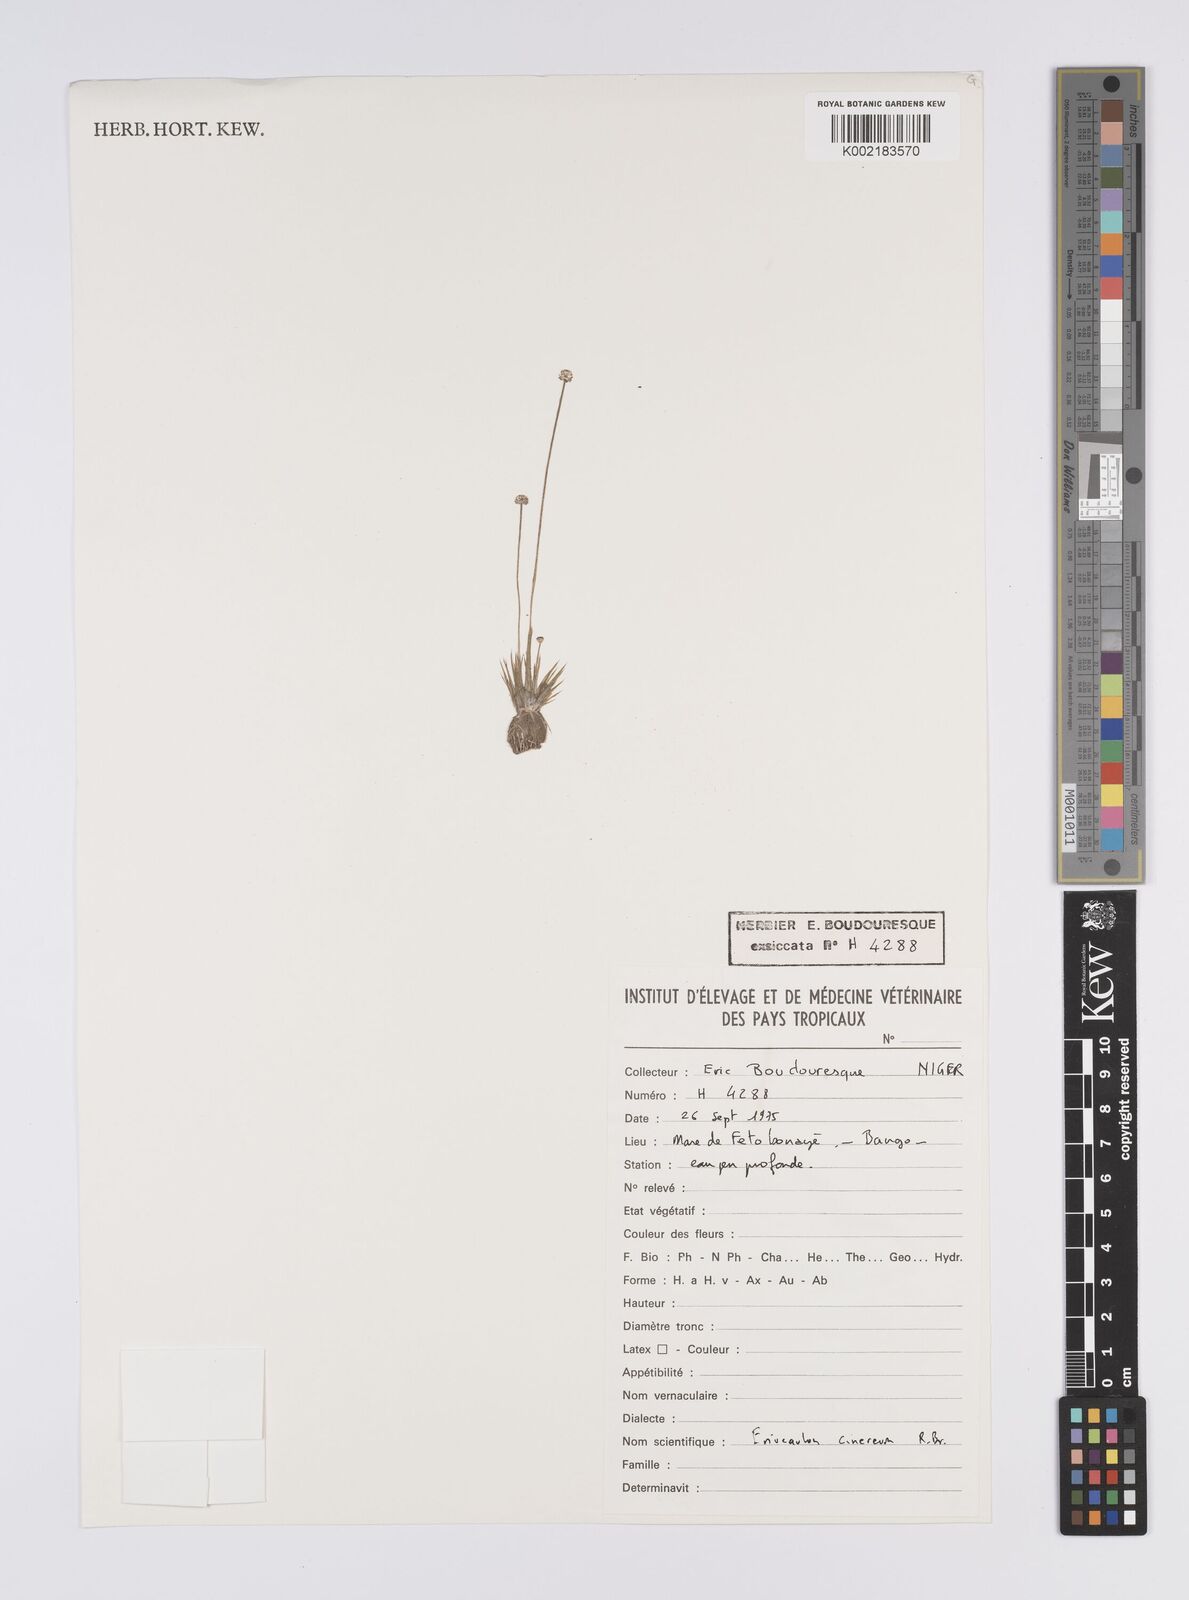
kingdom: Plantae
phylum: Tracheophyta
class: Liliopsida
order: Poales
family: Eriocaulaceae
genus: Eriocaulon
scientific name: Eriocaulon cinereum
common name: Ashy pipewort
